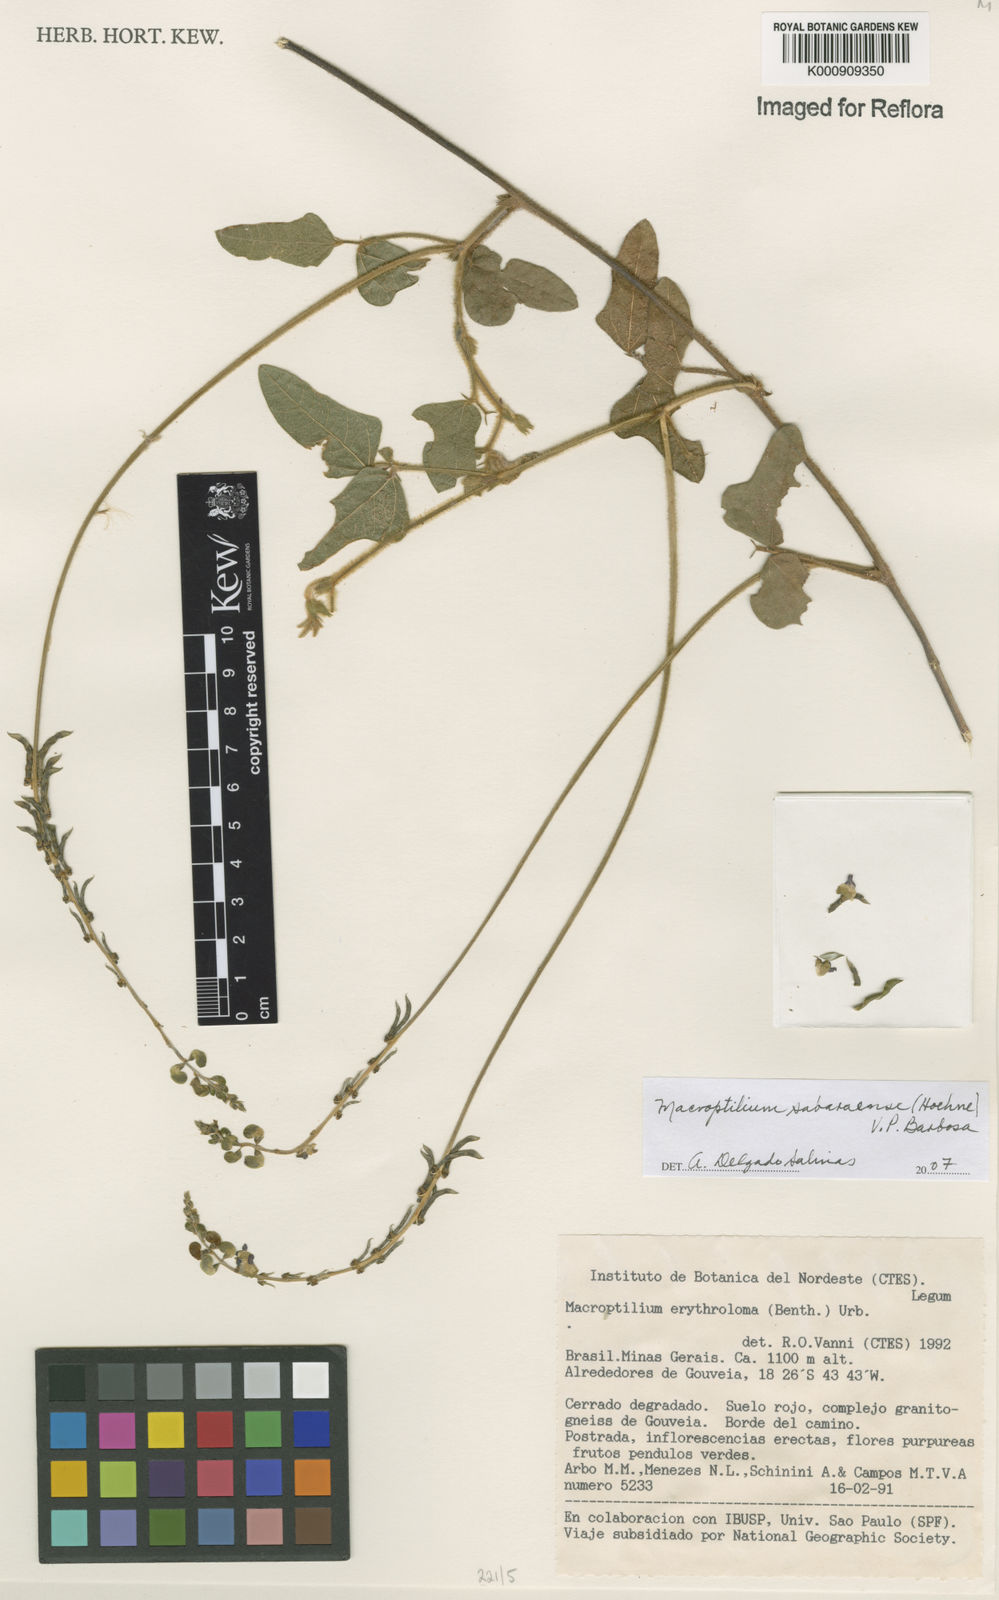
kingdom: Plantae
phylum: Tracheophyta
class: Magnoliopsida
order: Fabales
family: Fabaceae
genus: Macroptilium
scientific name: Macroptilium sabaraense
